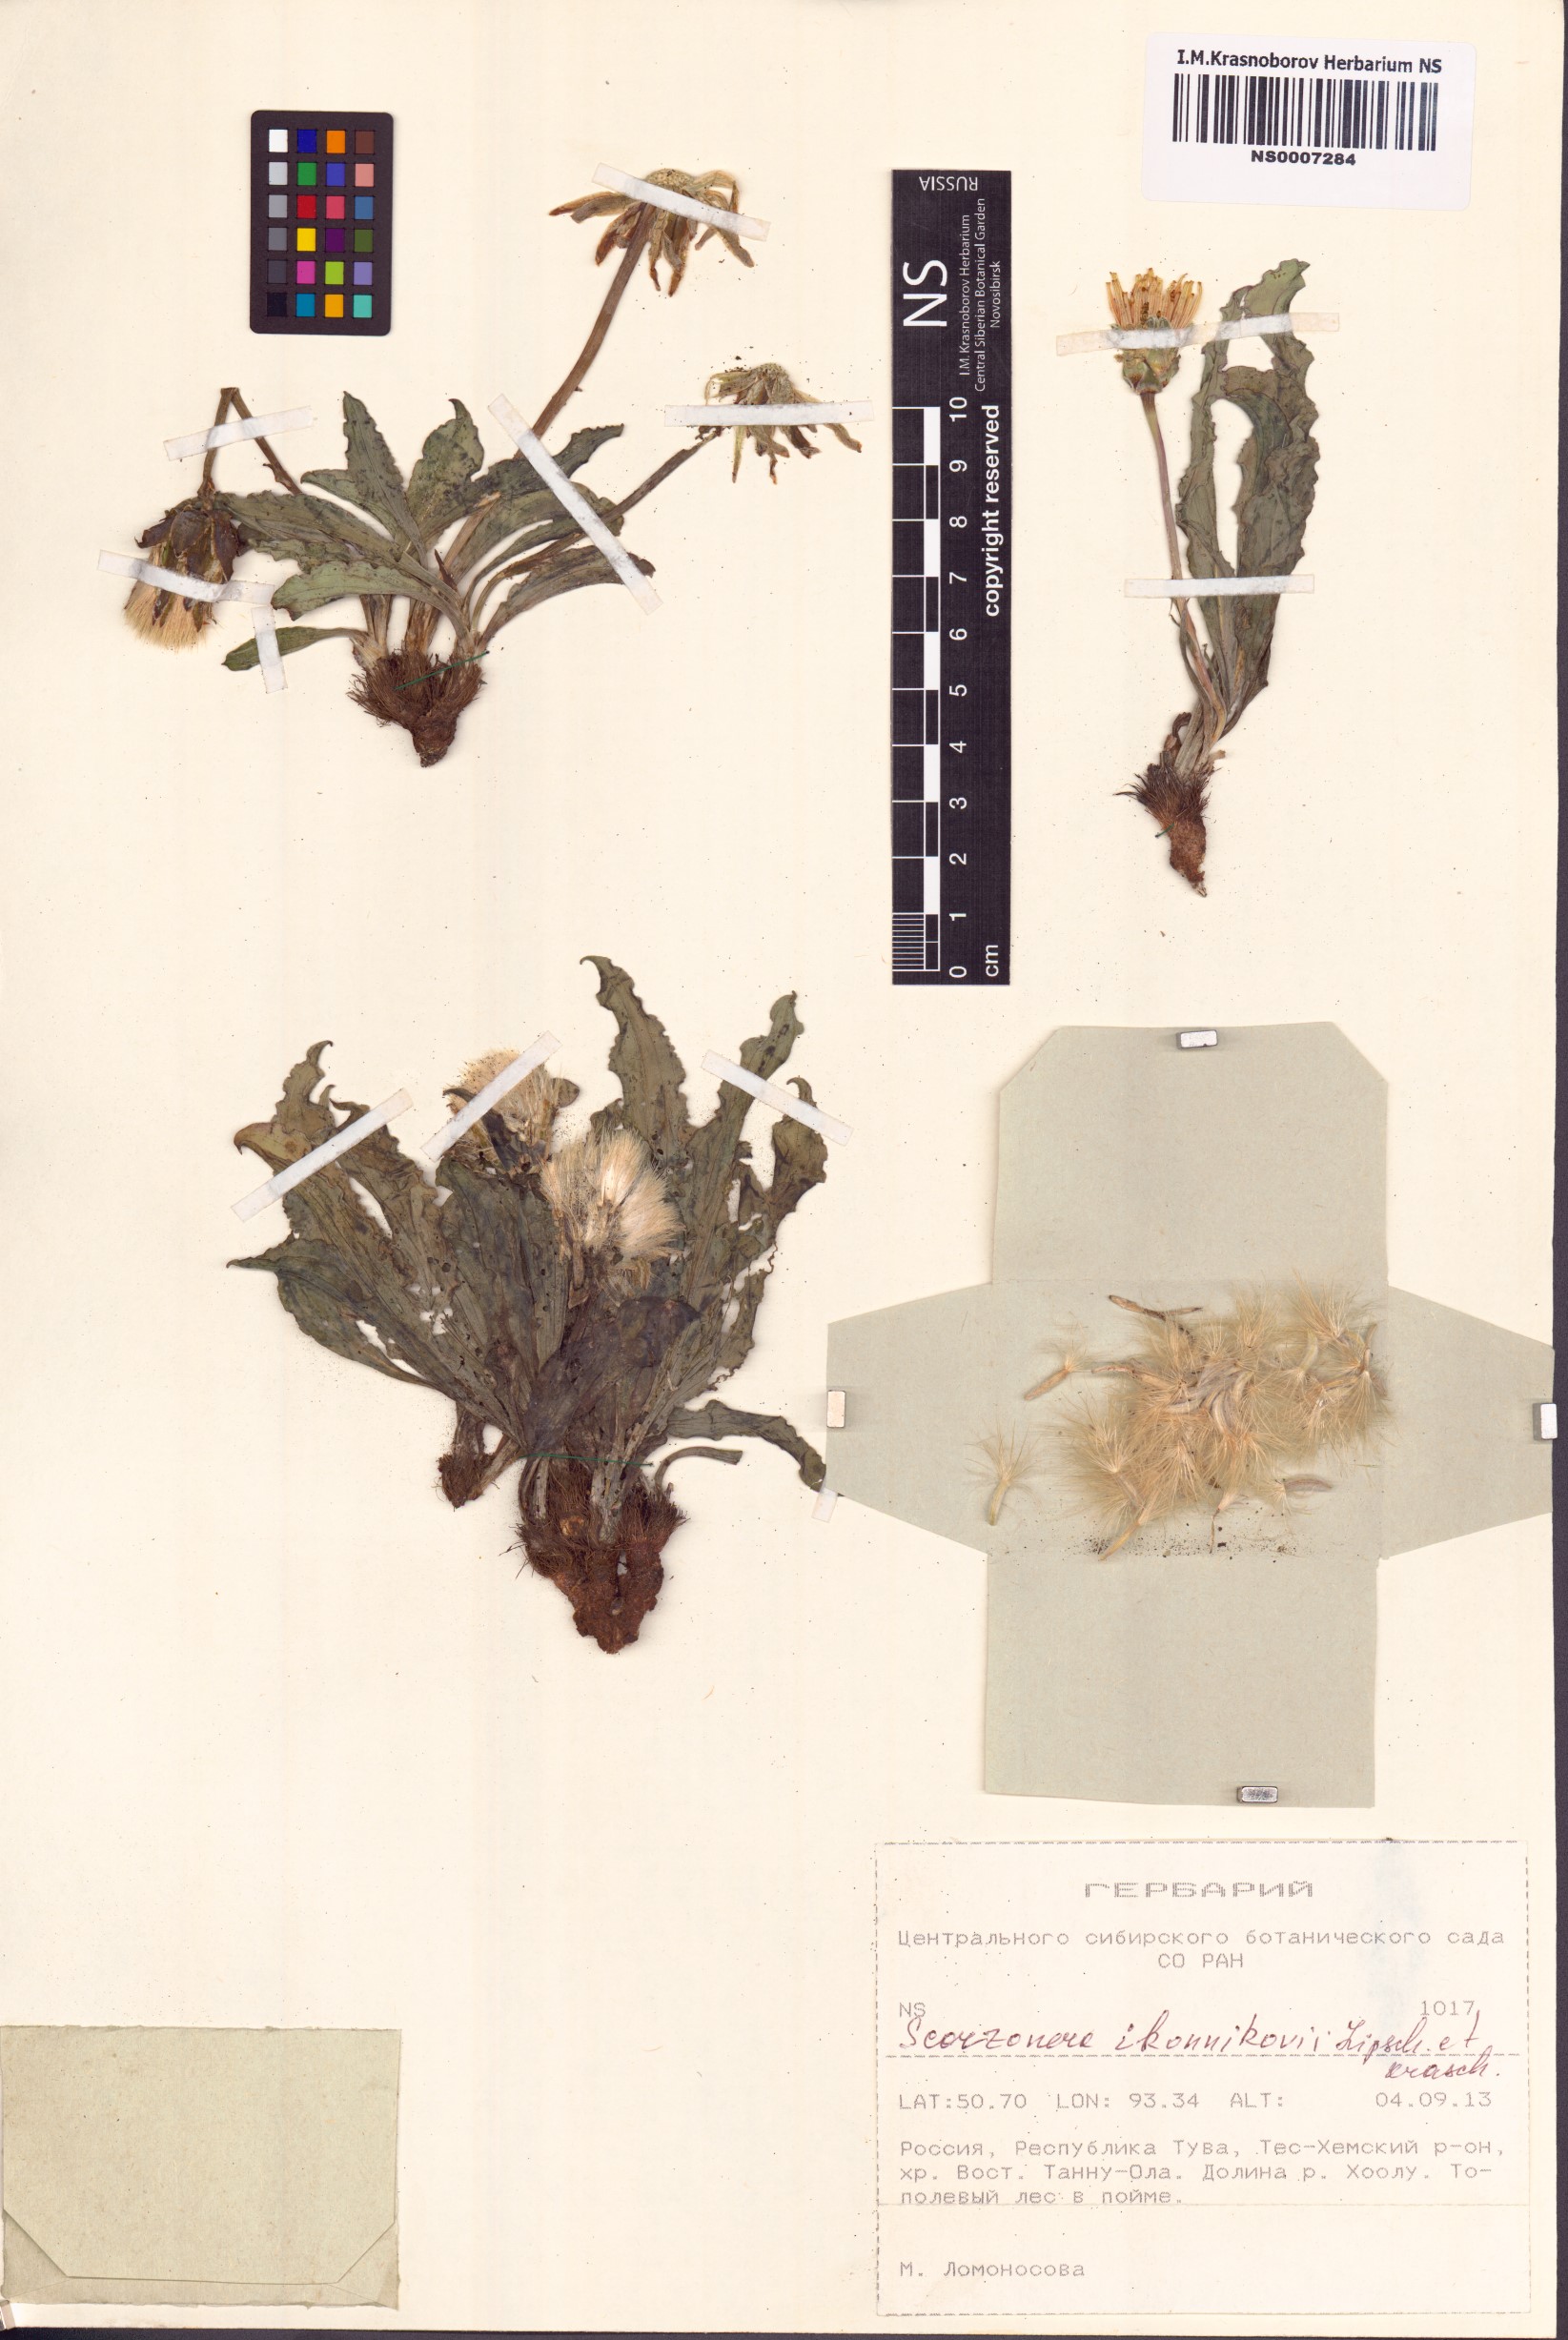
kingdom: Plantae
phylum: Tracheophyta
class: Magnoliopsida
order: Asterales
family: Asteraceae
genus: Takhtajaniantha
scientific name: Takhtajaniantha ikonnikovii
